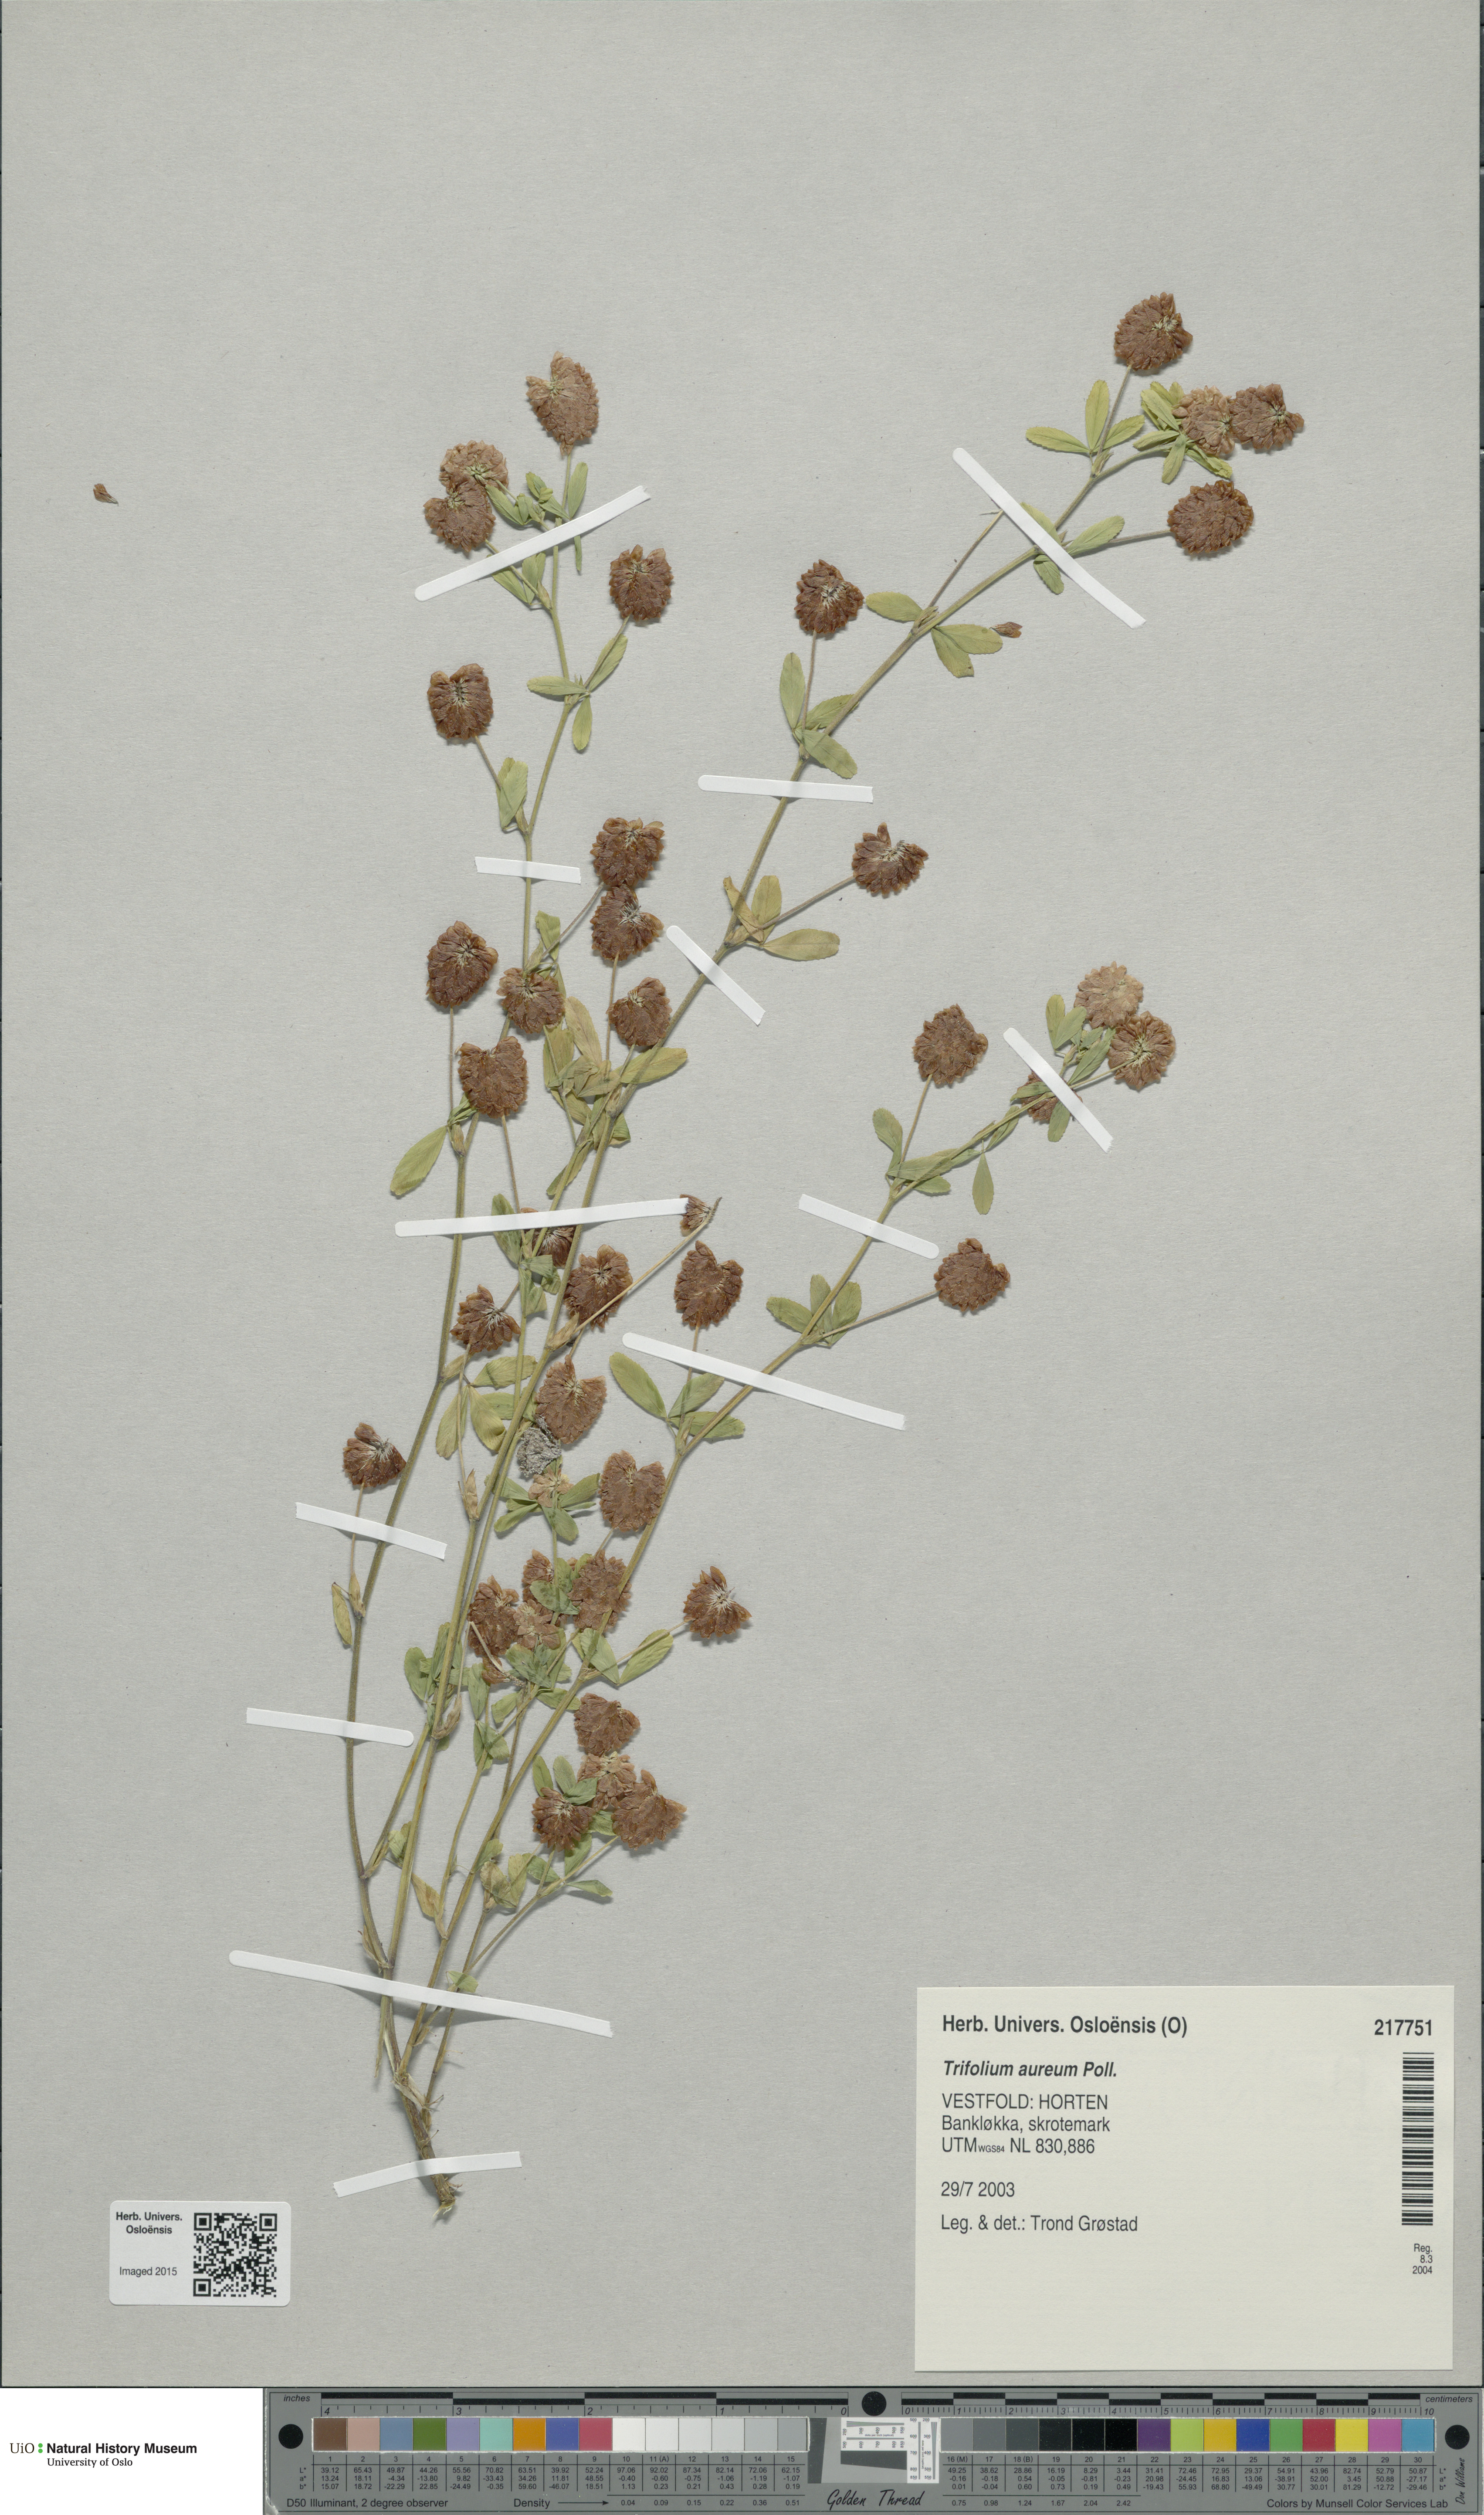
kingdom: Plantae
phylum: Tracheophyta
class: Magnoliopsida
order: Fabales
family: Fabaceae
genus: Trifolium
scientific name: Trifolium aureum
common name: Golden clover
